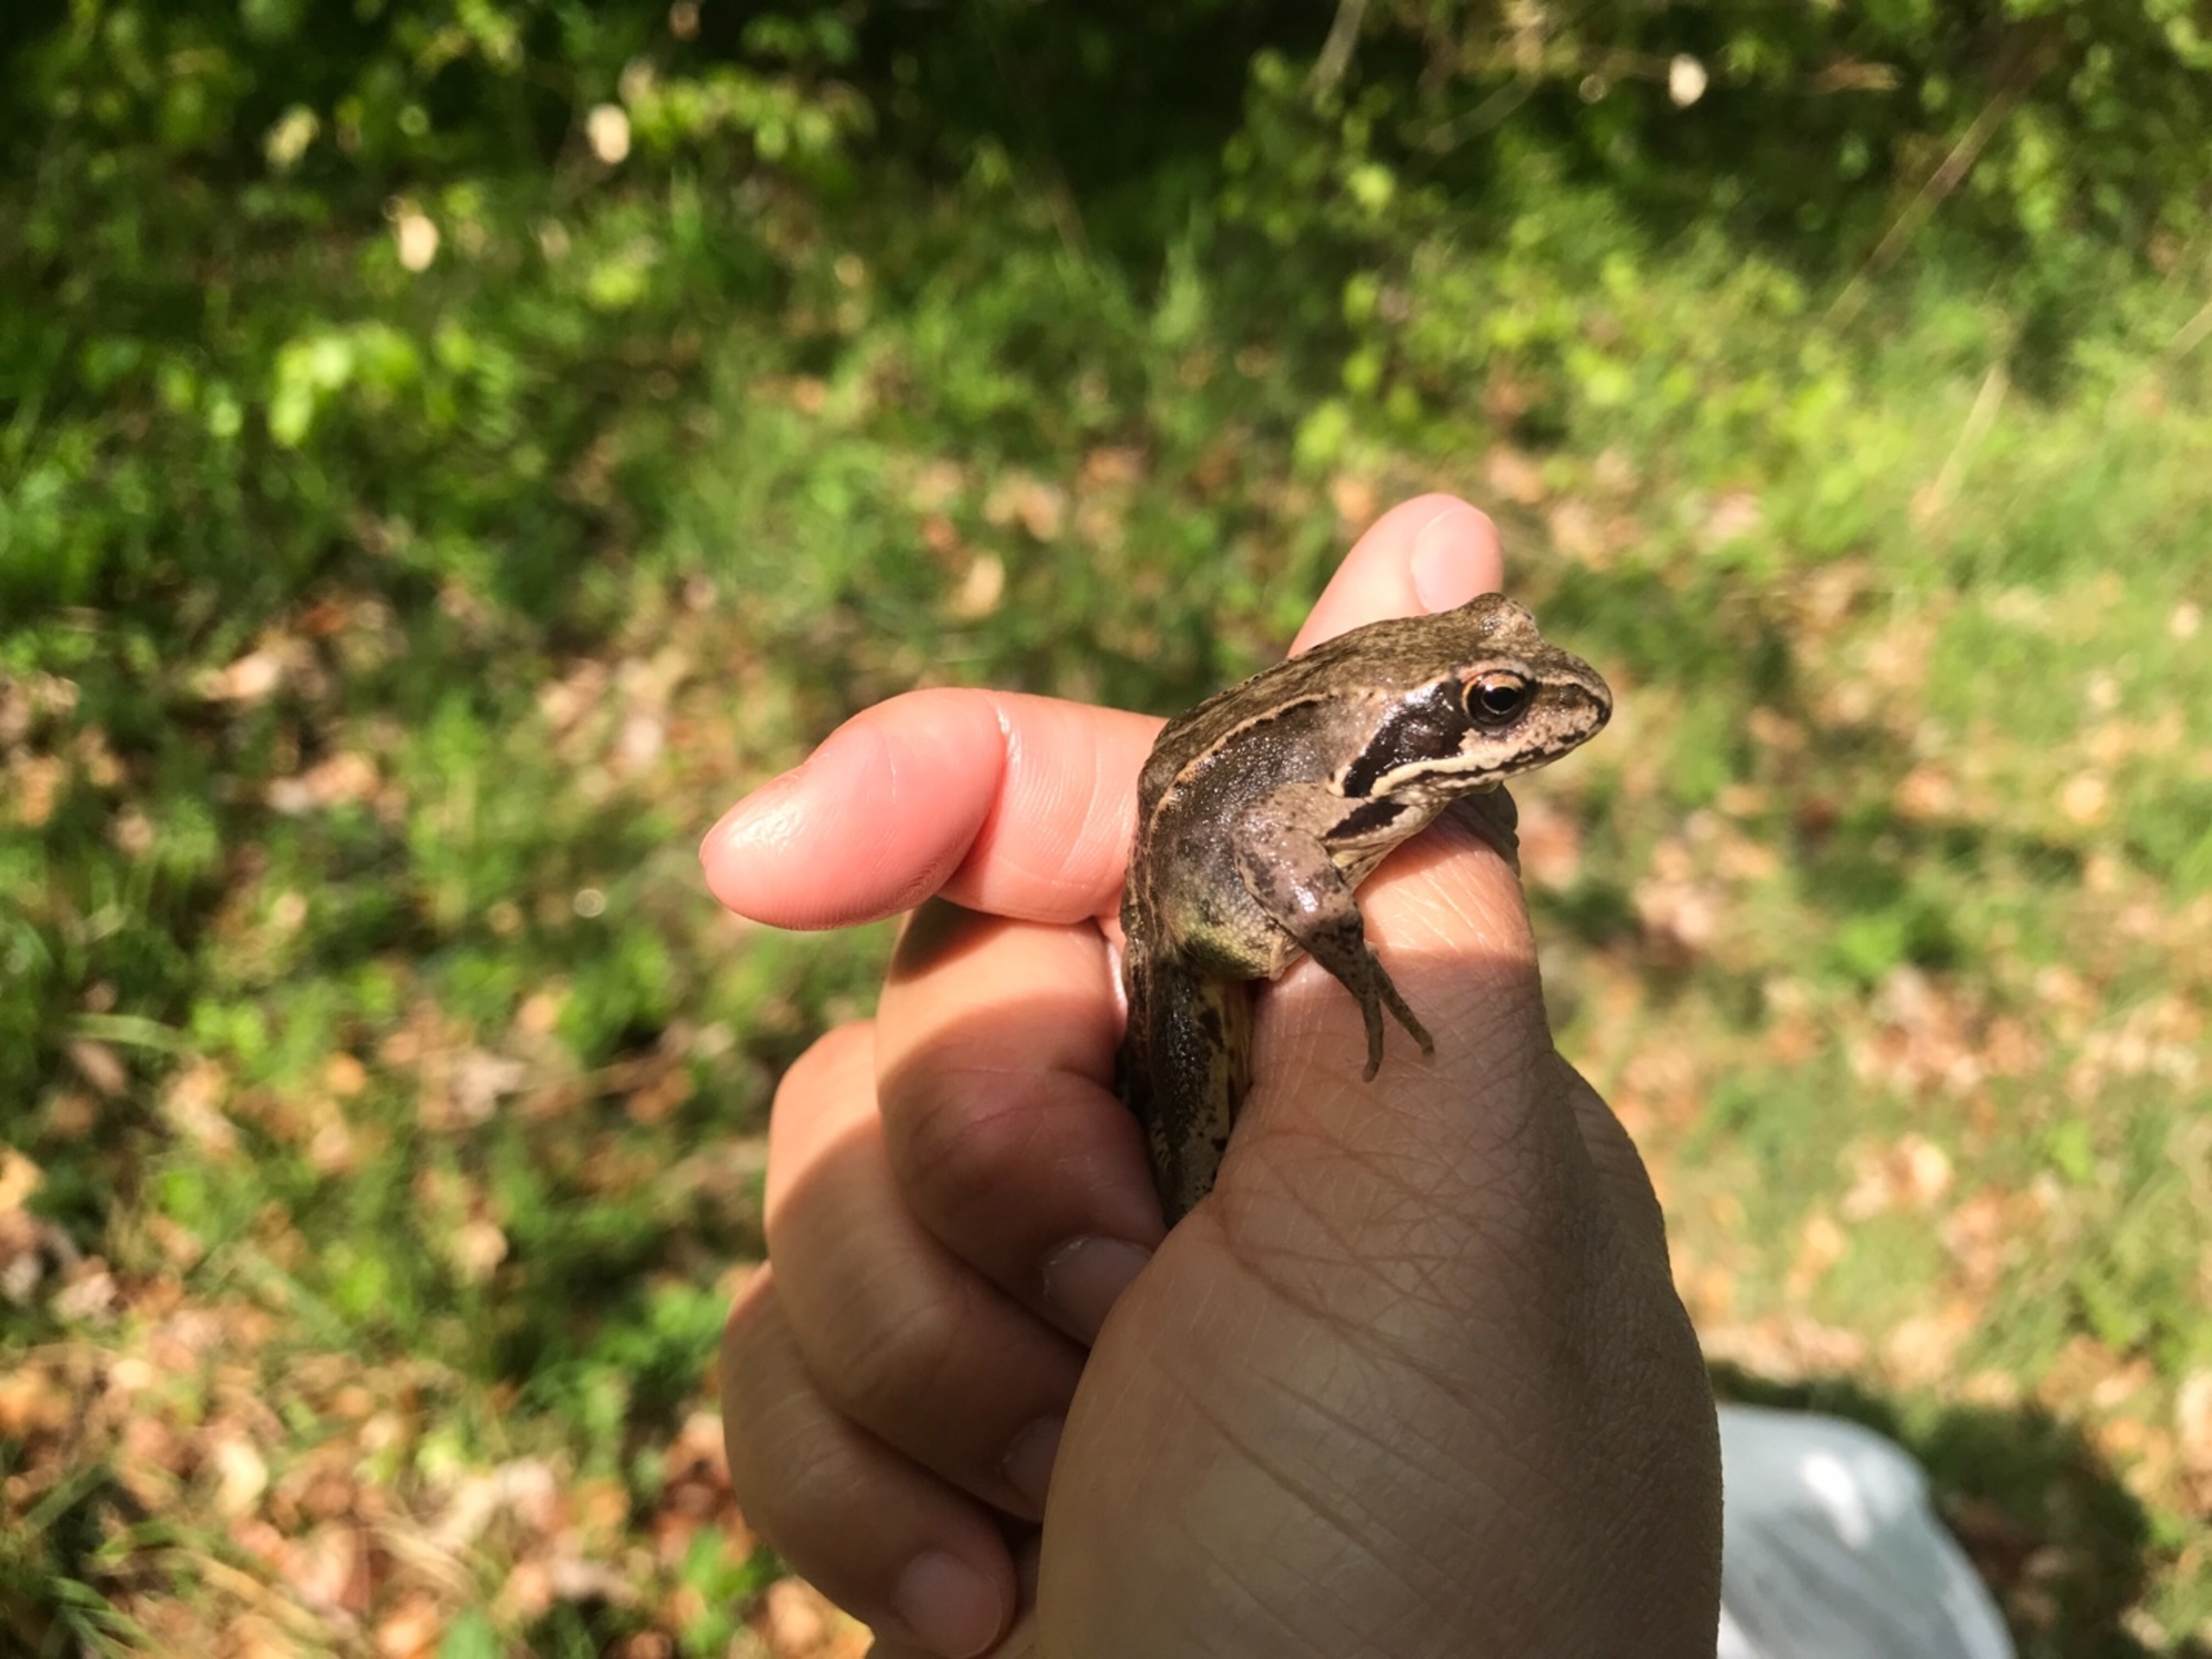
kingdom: Animalia
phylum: Chordata
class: Amphibia
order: Anura
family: Ranidae
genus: Rana
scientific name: Rana temporaria
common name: Butsnudet frø
